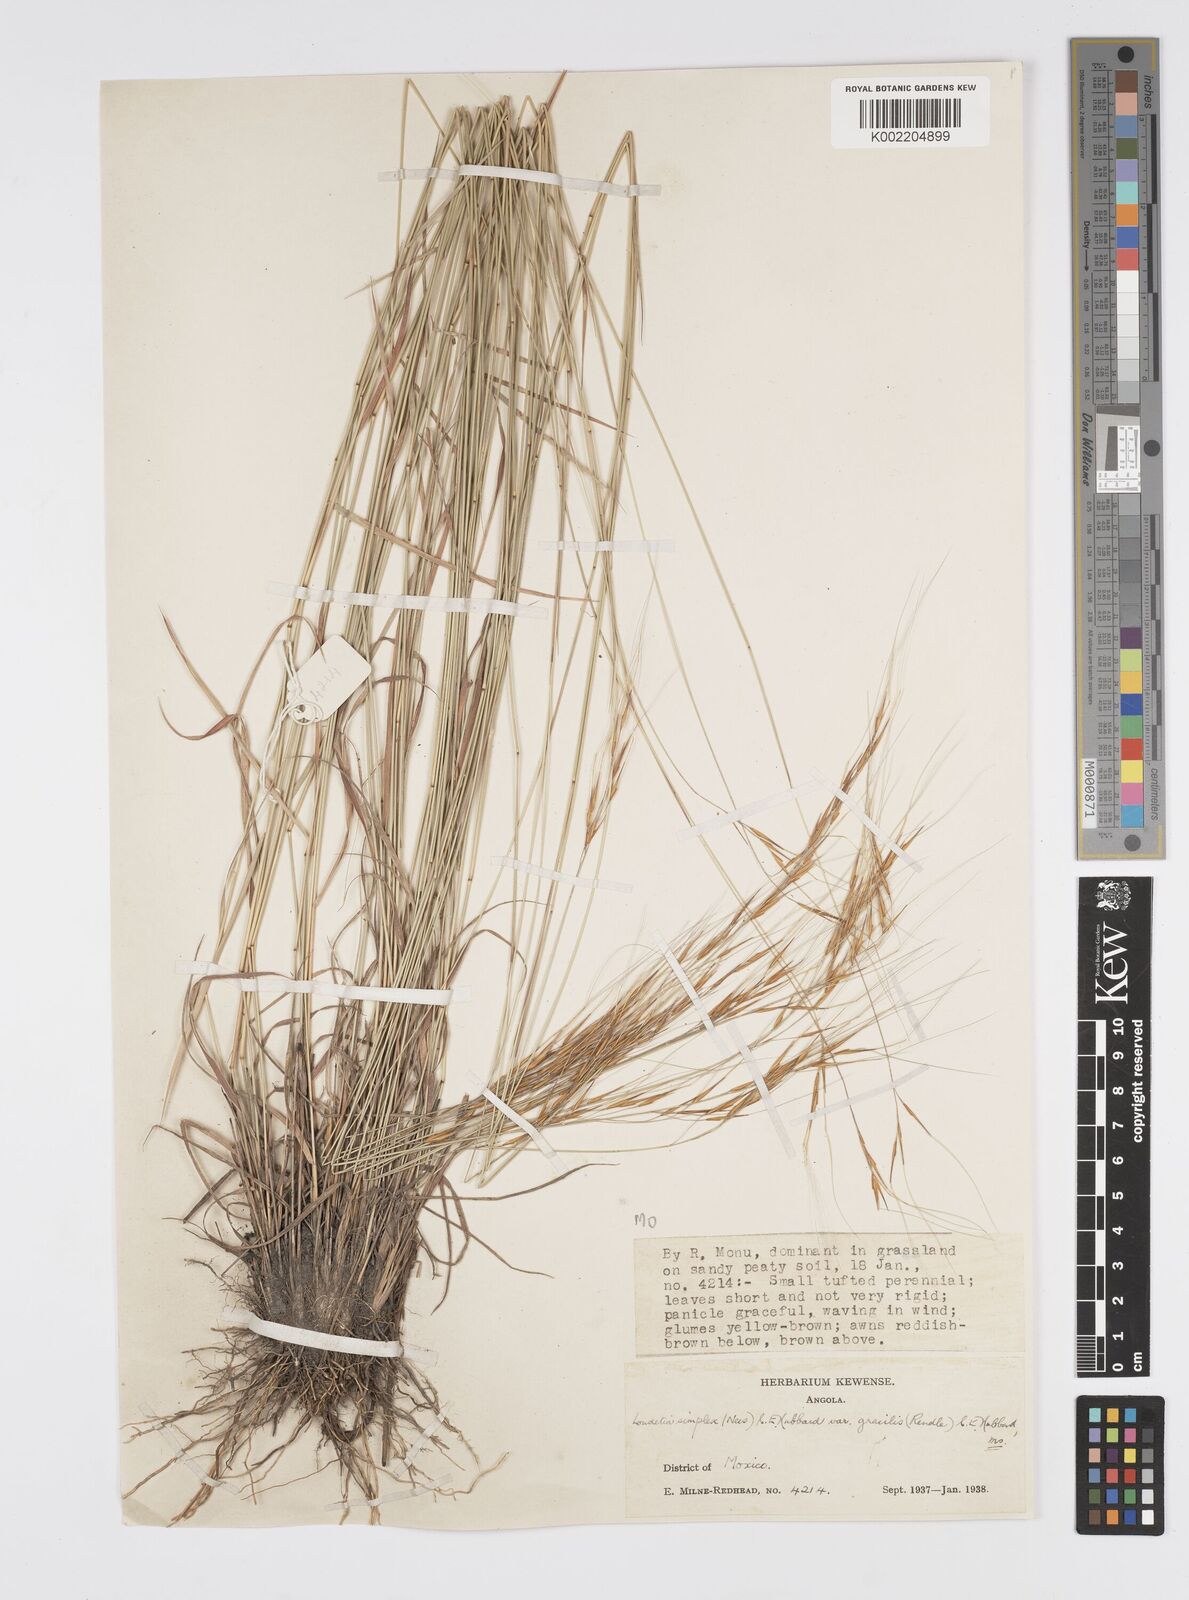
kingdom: Plantae
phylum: Tracheophyta
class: Liliopsida
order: Poales
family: Poaceae
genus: Loudetia
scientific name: Loudetia simplex
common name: Common russet grass
